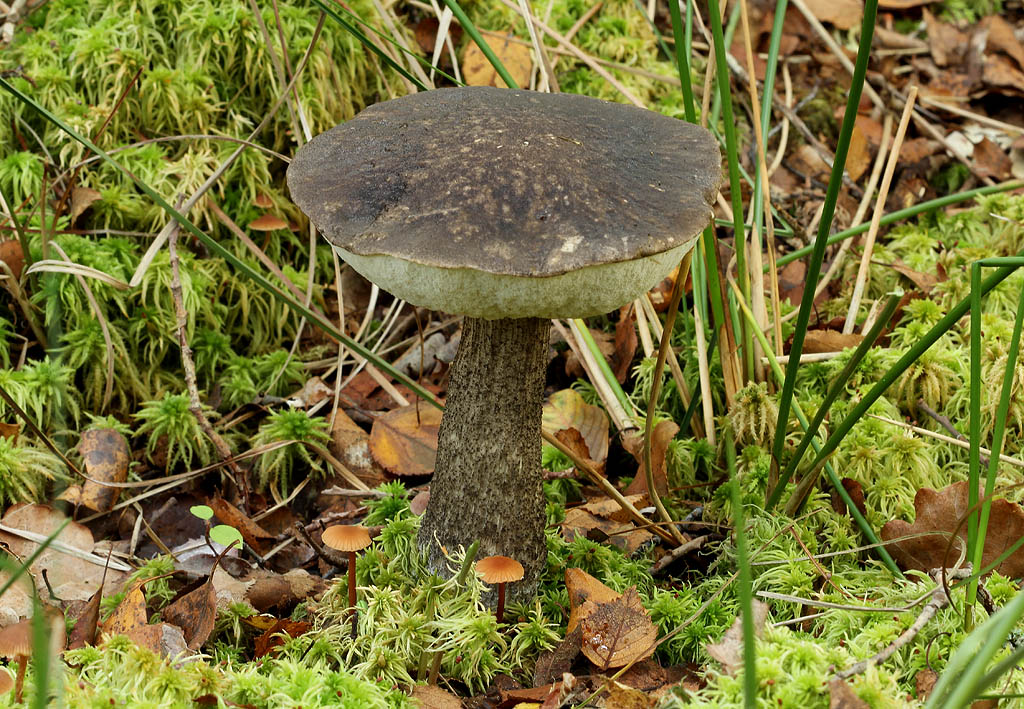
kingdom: Fungi
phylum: Basidiomycota
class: Agaricomycetes
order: Boletales
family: Boletaceae
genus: Leccinum
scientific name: Leccinum variicolor
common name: flammet skælrørhat
